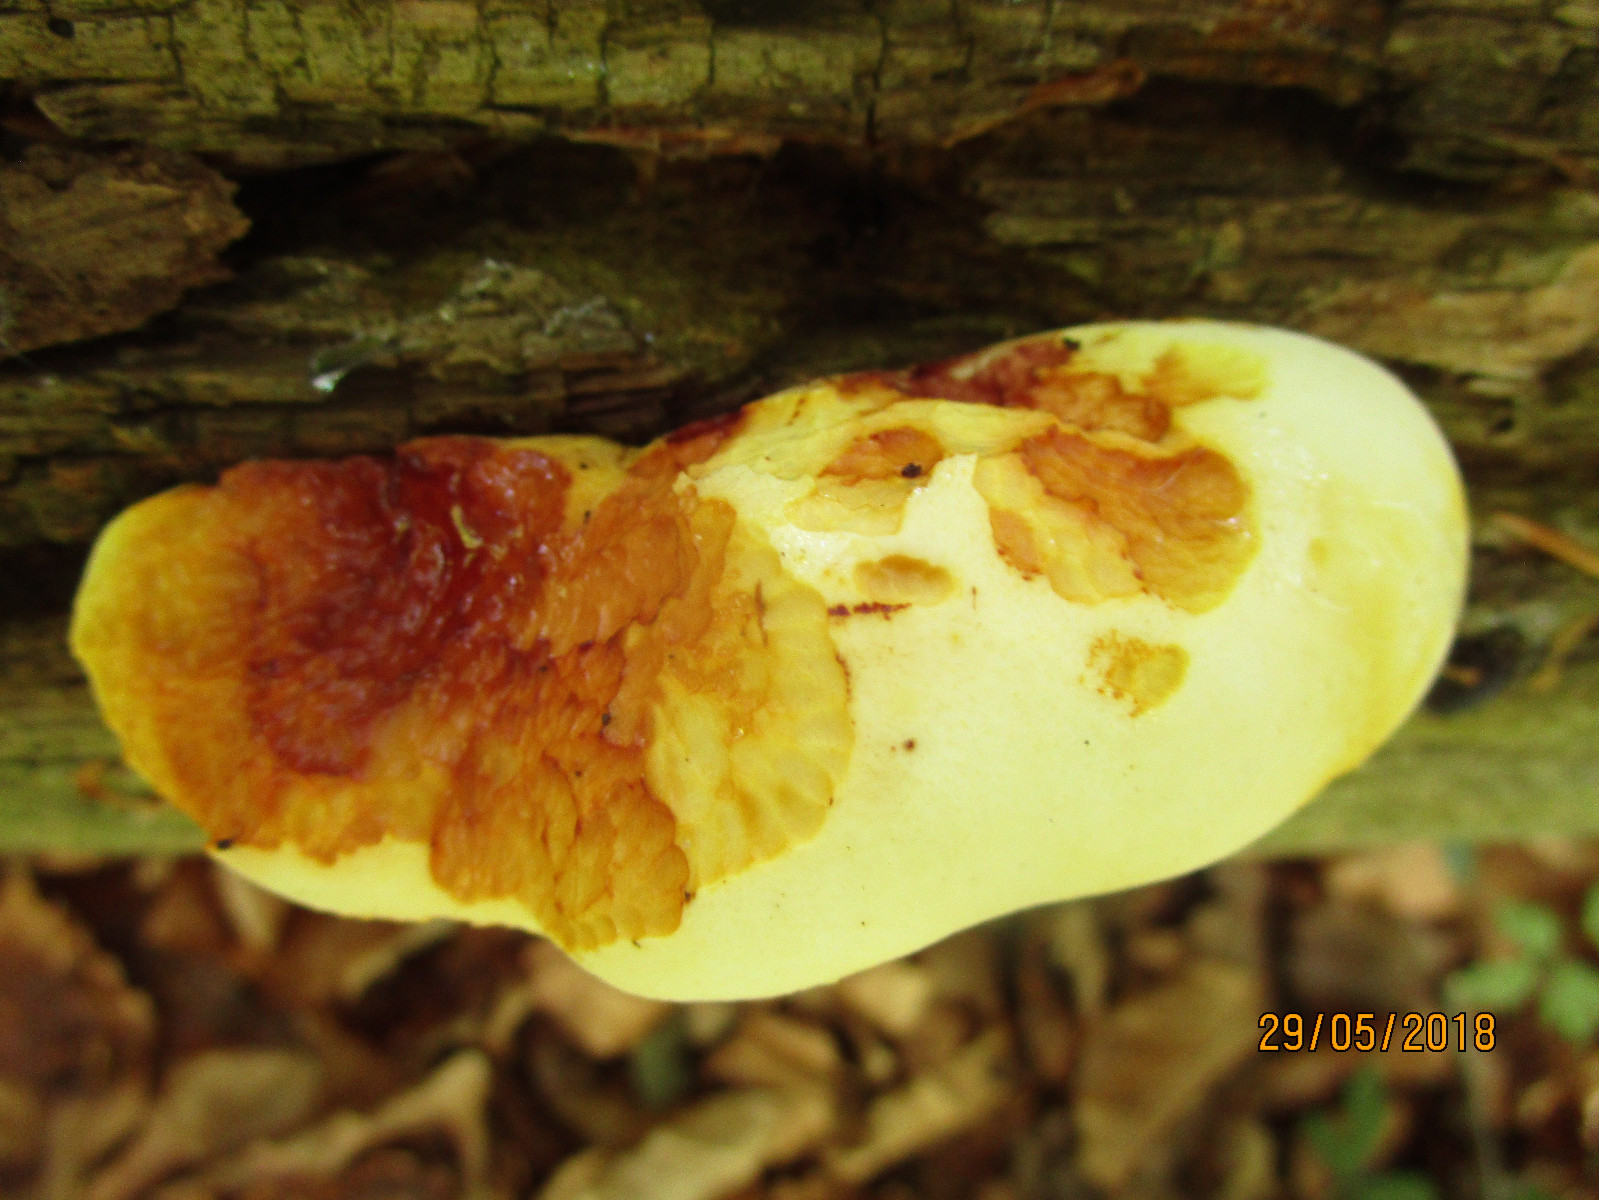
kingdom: Fungi
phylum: Basidiomycota
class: Agaricomycetes
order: Polyporales
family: Fomitopsidaceae
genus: Buglossoporus
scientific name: Buglossoporus quercinus
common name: egetunge
